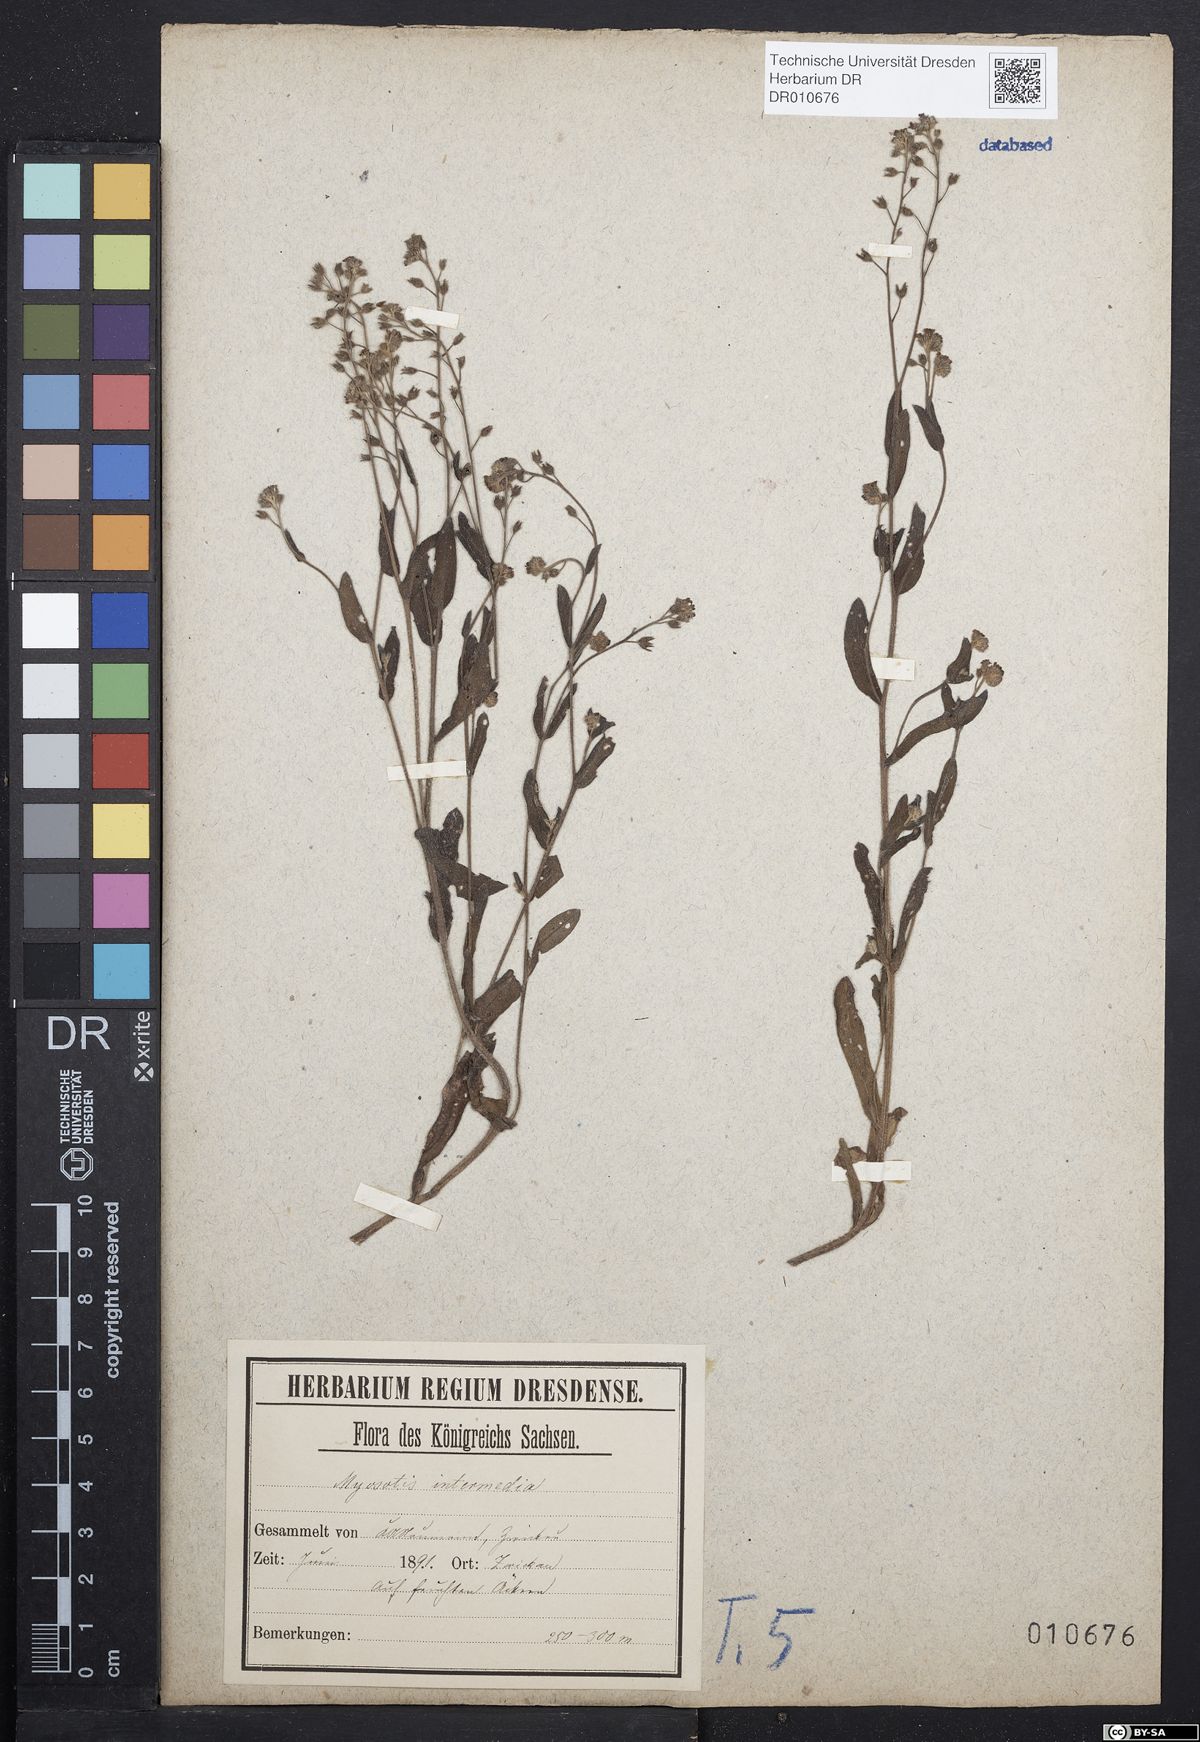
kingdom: Plantae
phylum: Tracheophyta
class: Magnoliopsida
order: Boraginales
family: Boraginaceae
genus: Myosotis
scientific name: Myosotis arvensis
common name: Field forget-me-not
